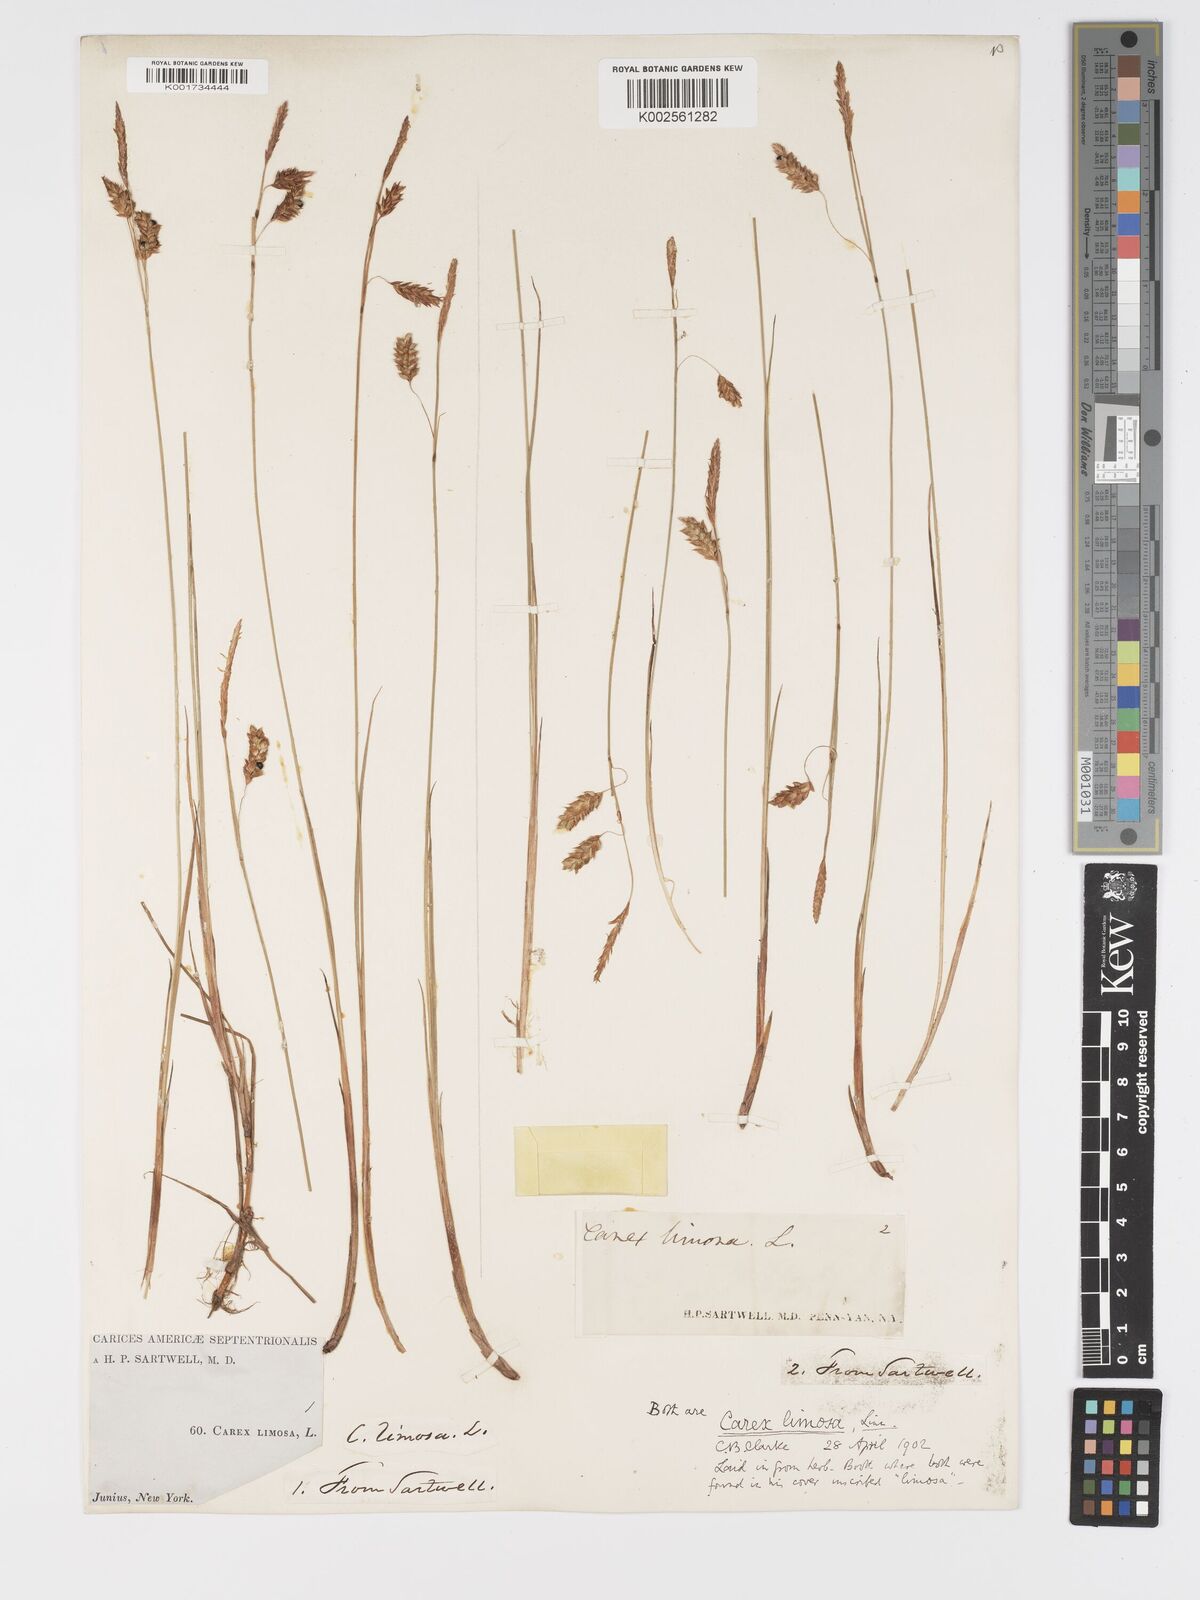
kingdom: Plantae
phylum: Tracheophyta
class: Liliopsida
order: Poales
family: Cyperaceae
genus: Carex
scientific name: Carex limosa
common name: Bog sedge
